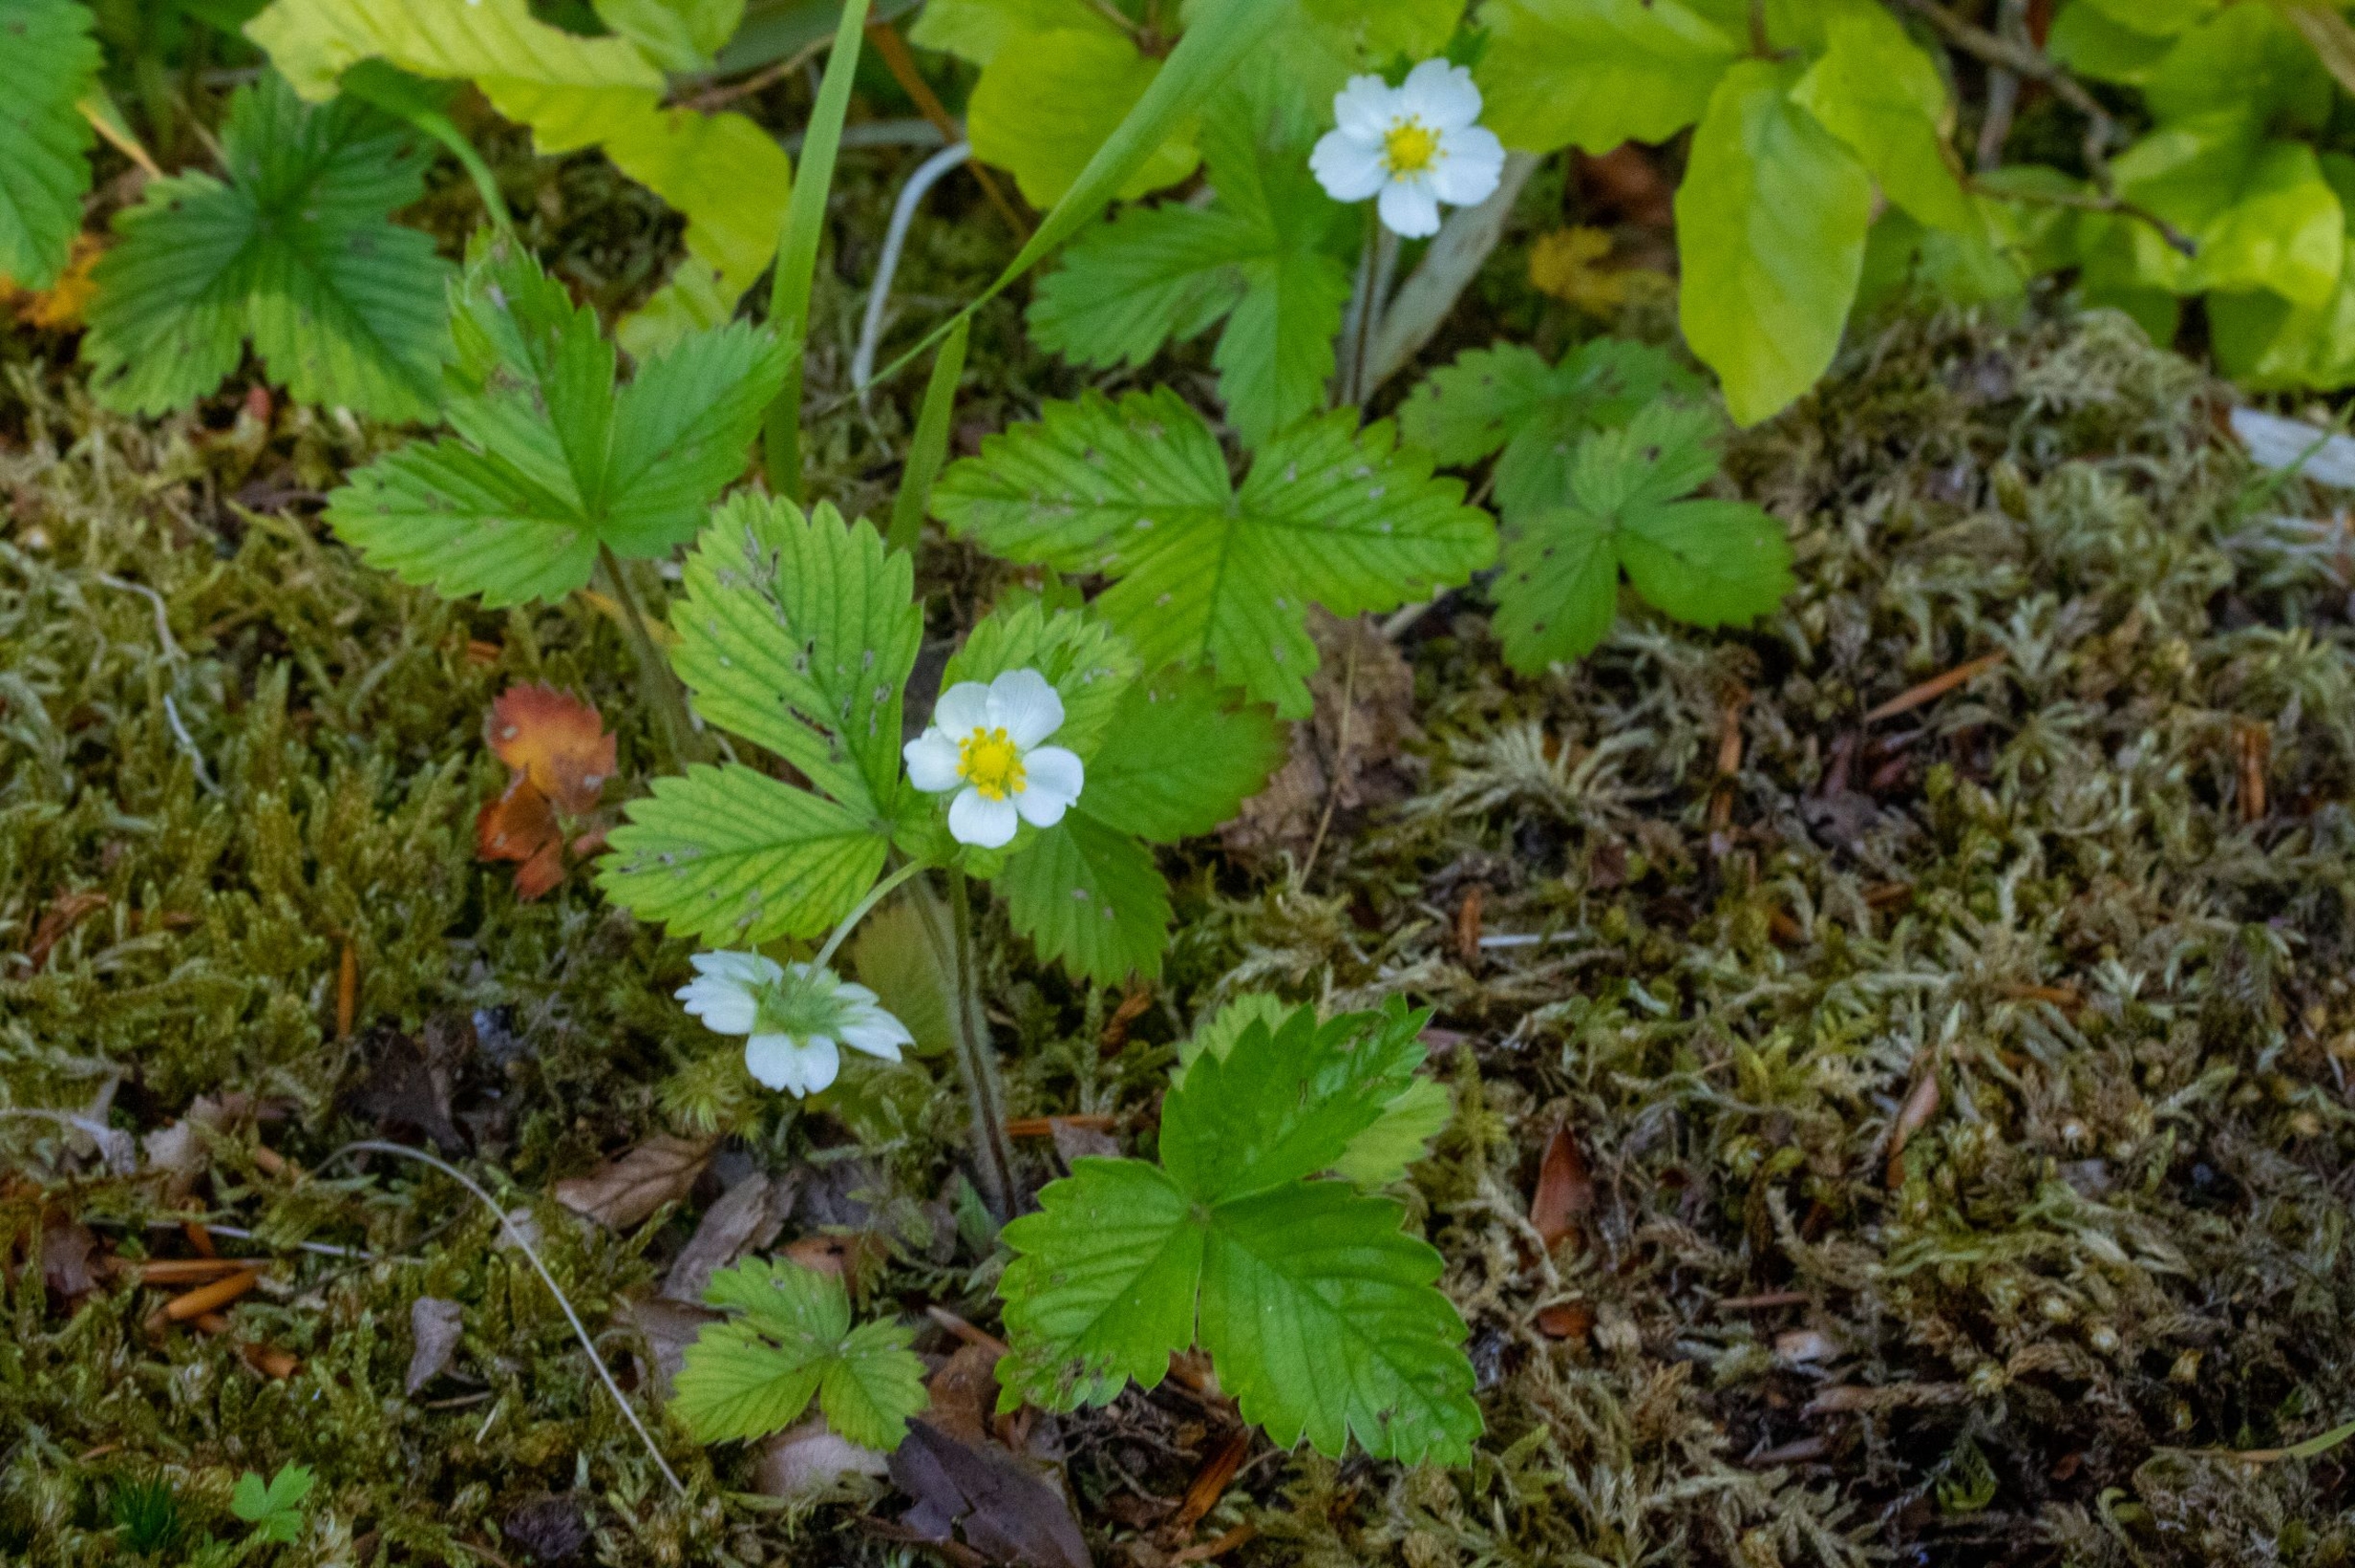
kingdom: Plantae
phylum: Tracheophyta
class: Magnoliopsida
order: Rosales
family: Rosaceae
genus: Fragaria
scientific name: Fragaria vesca
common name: Skov-jordbær
